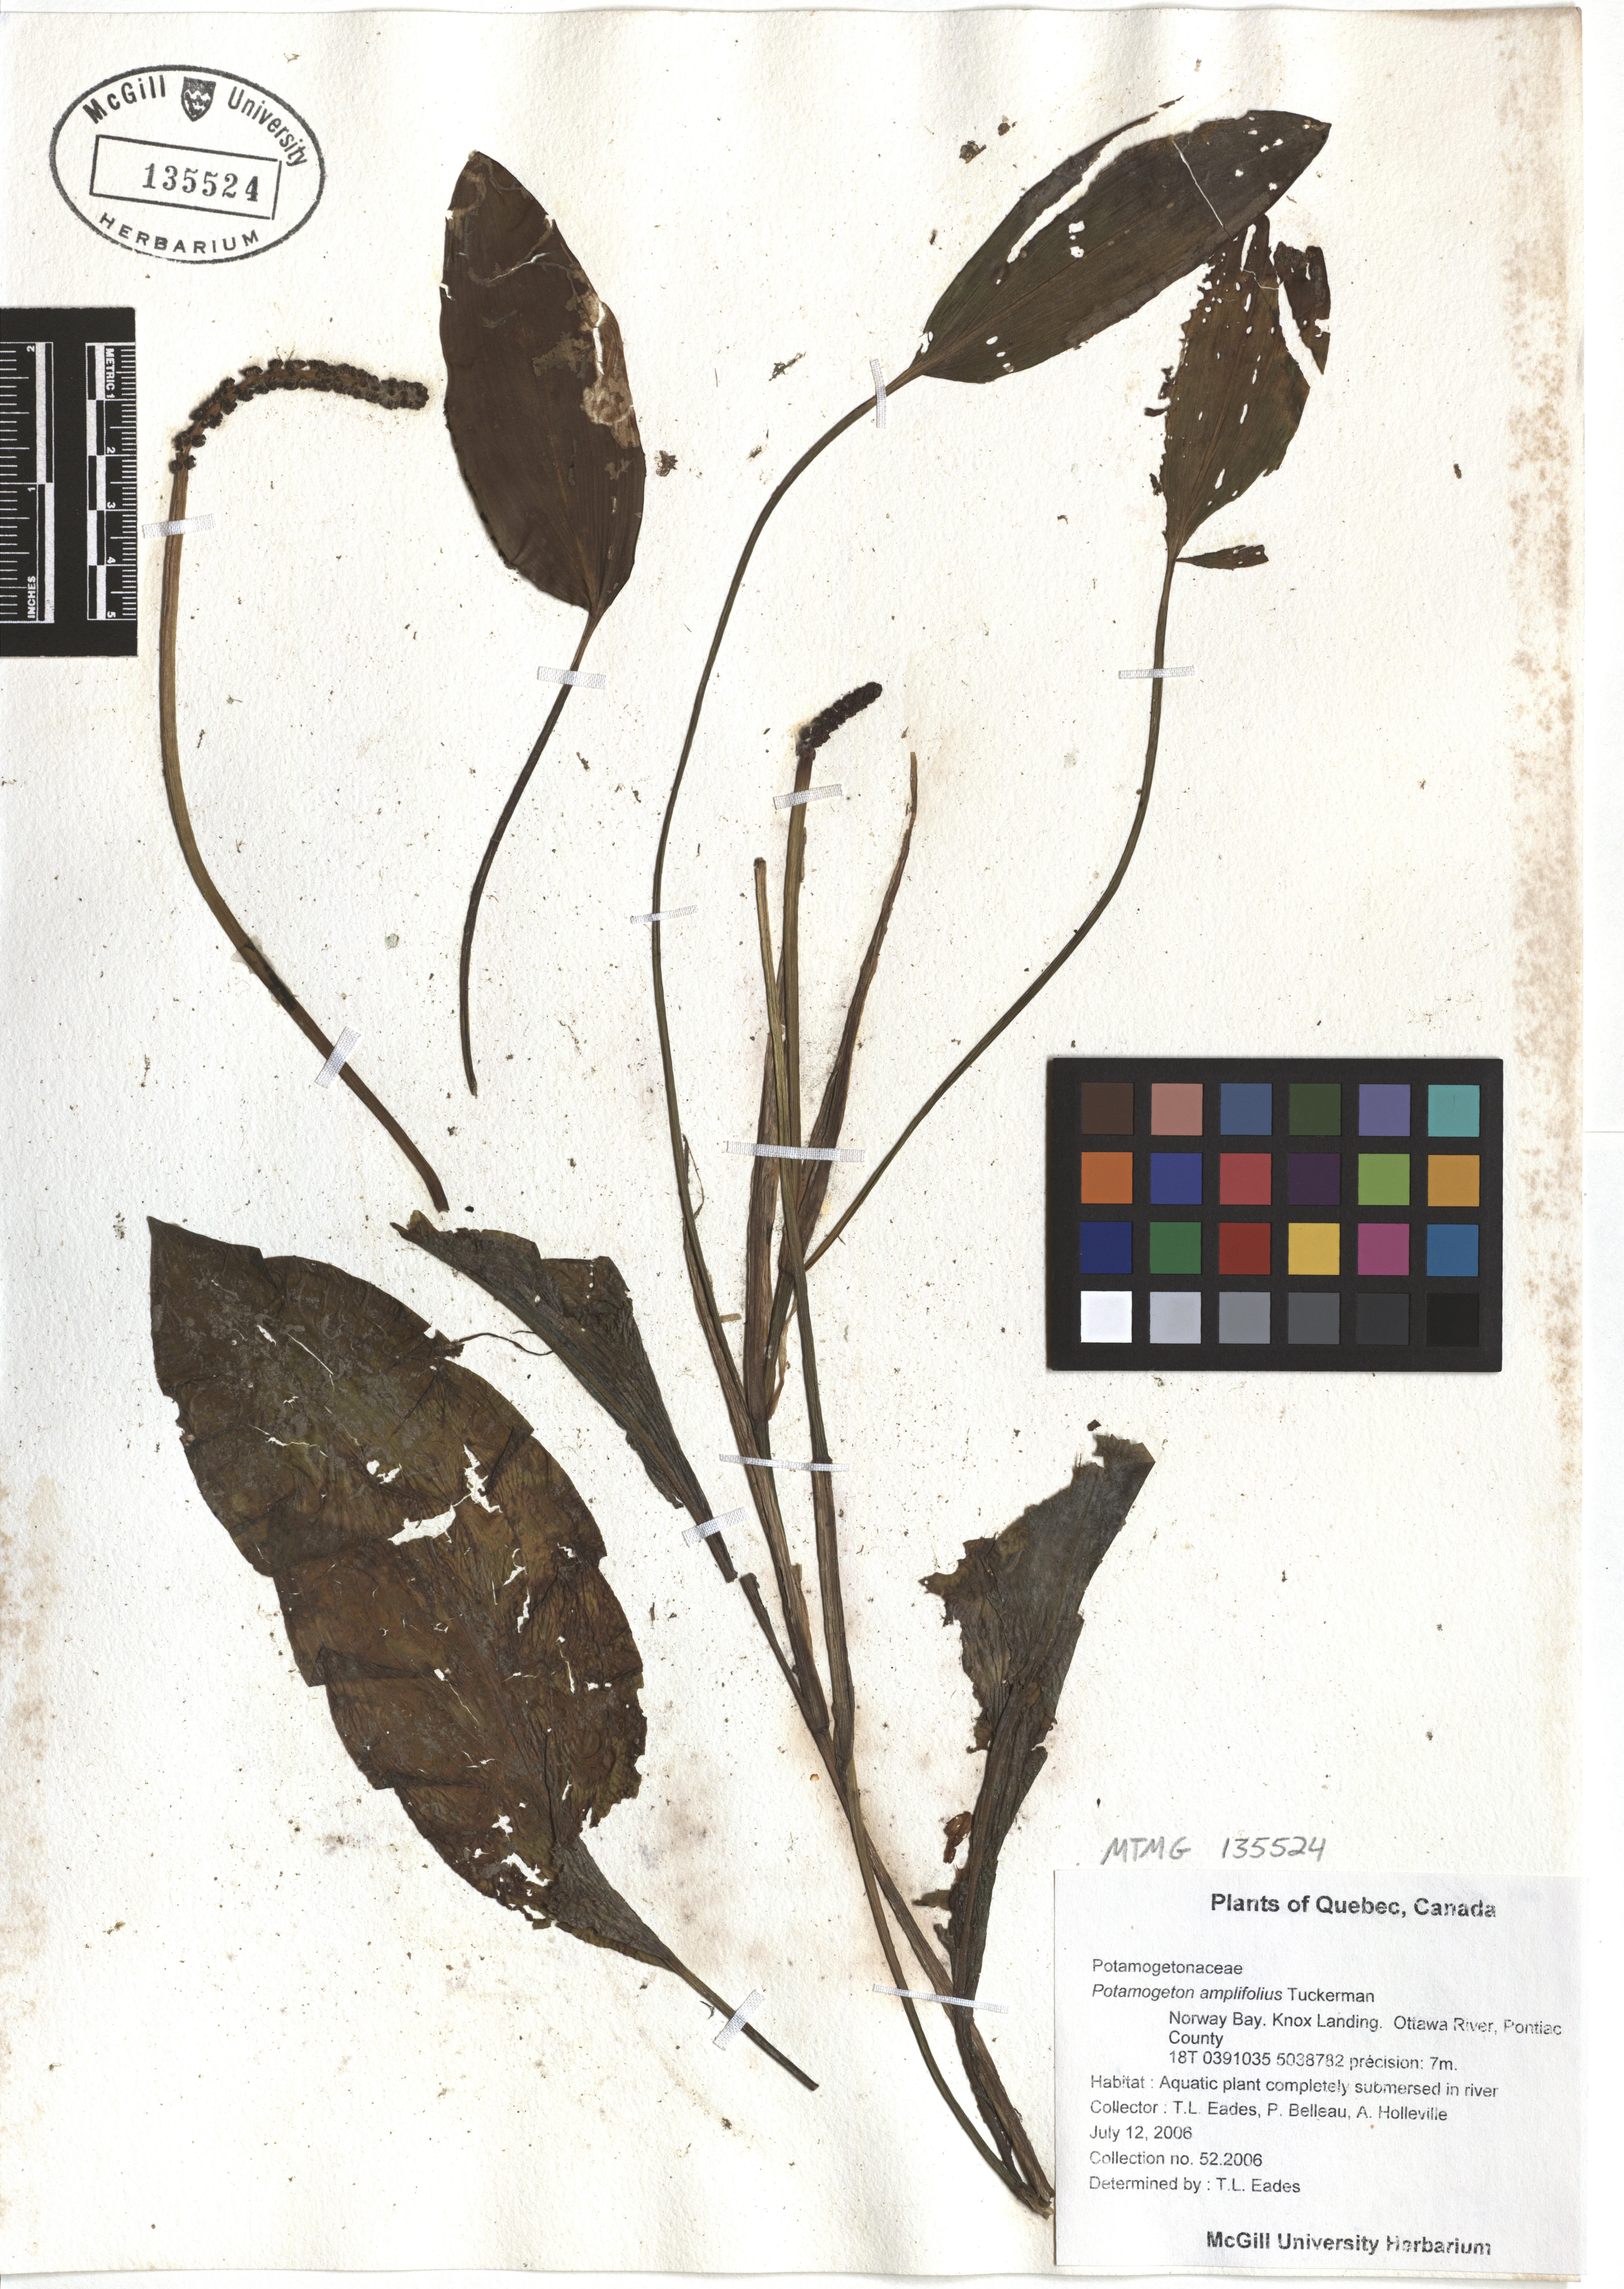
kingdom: Plantae
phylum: Tracheophyta
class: Liliopsida
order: Alismatales
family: Potamogetonaceae
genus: Potamogeton
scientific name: Potamogeton amplifolius
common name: Broad-leaved pondweed
